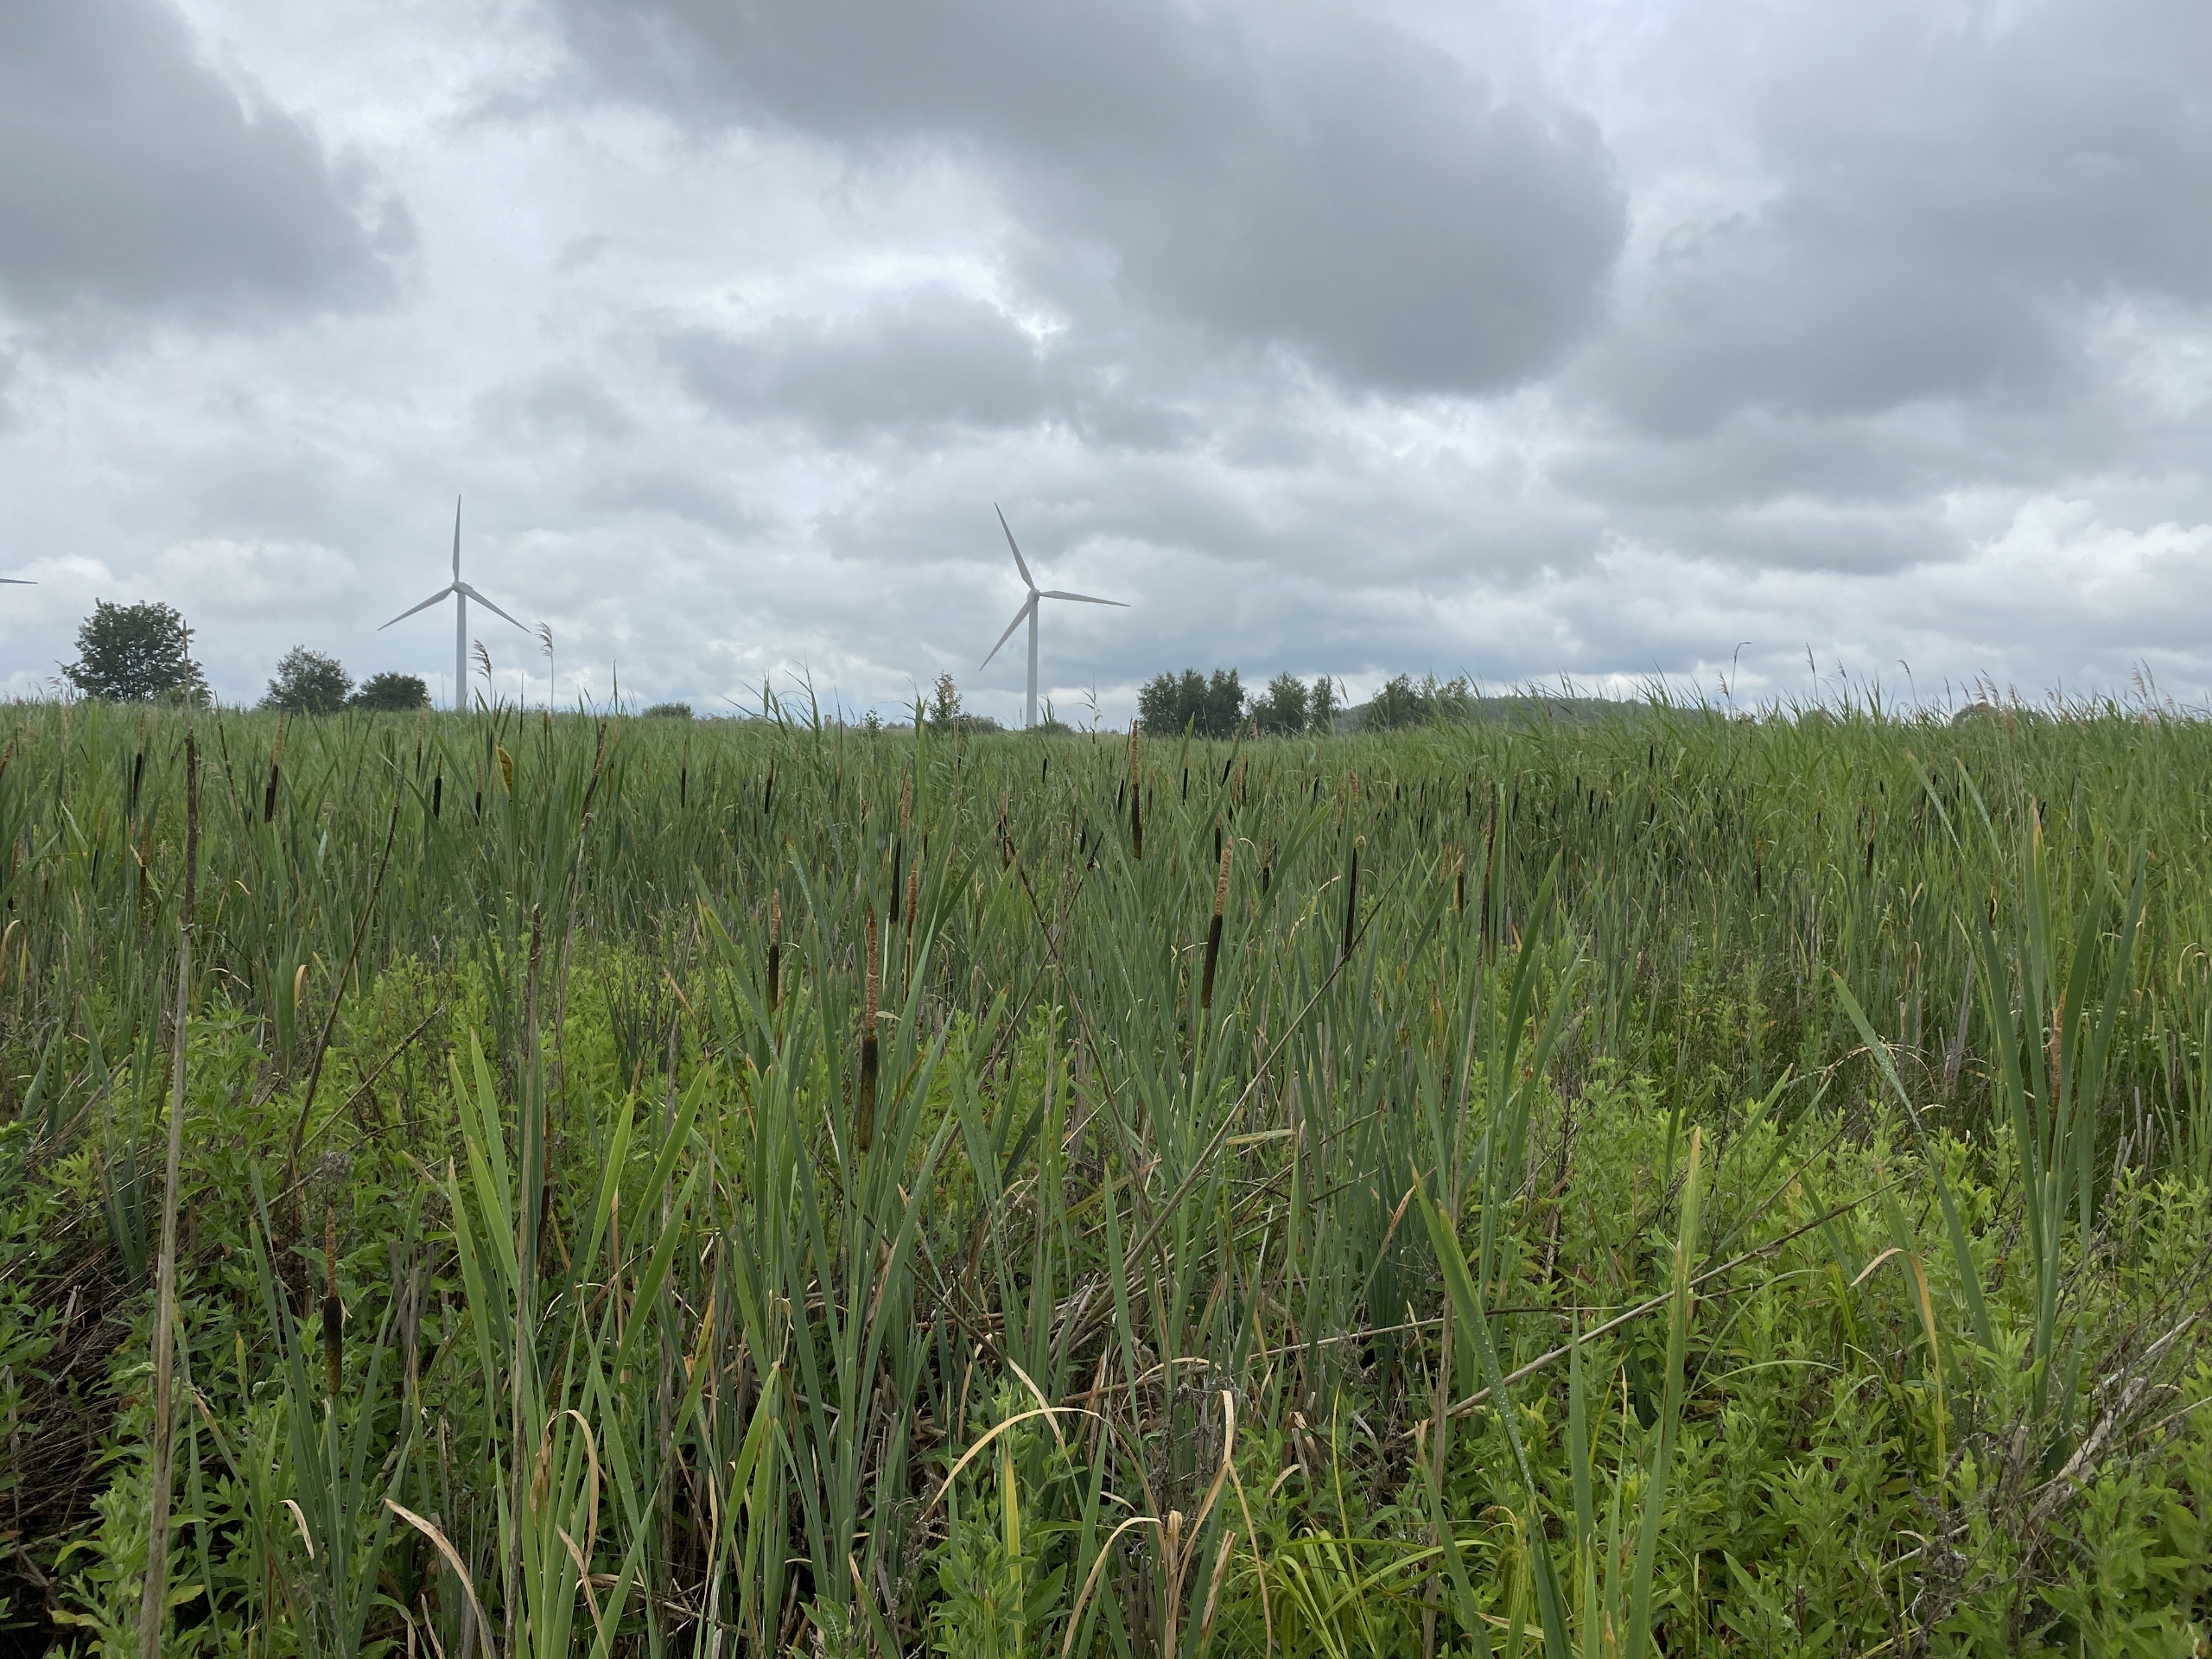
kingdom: Plantae
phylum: Tracheophyta
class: Liliopsida
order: Poales
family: Typhaceae
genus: Typha
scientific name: Typha latifolia
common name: Bredbladet dunhammer
